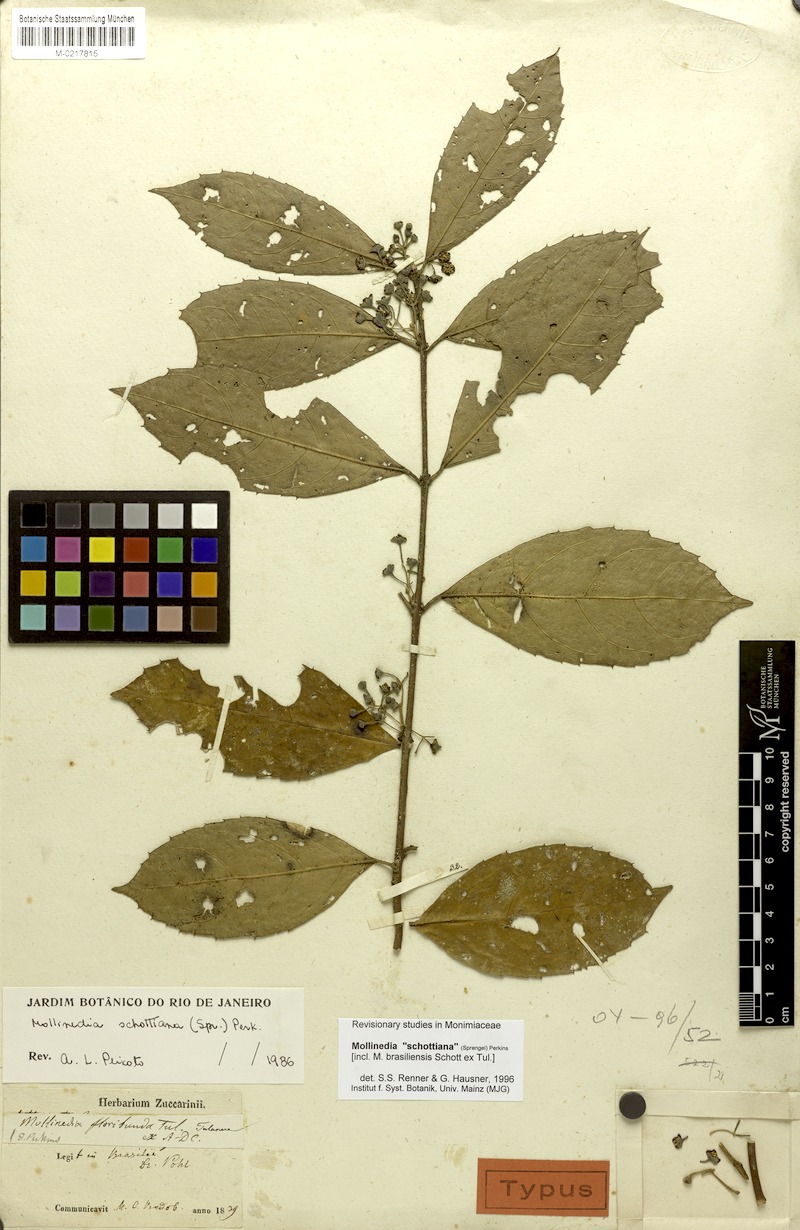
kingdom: Plantae
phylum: Tracheophyta
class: Magnoliopsida
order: Laurales
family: Monimiaceae
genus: Mollinedia
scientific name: Mollinedia umbellata
